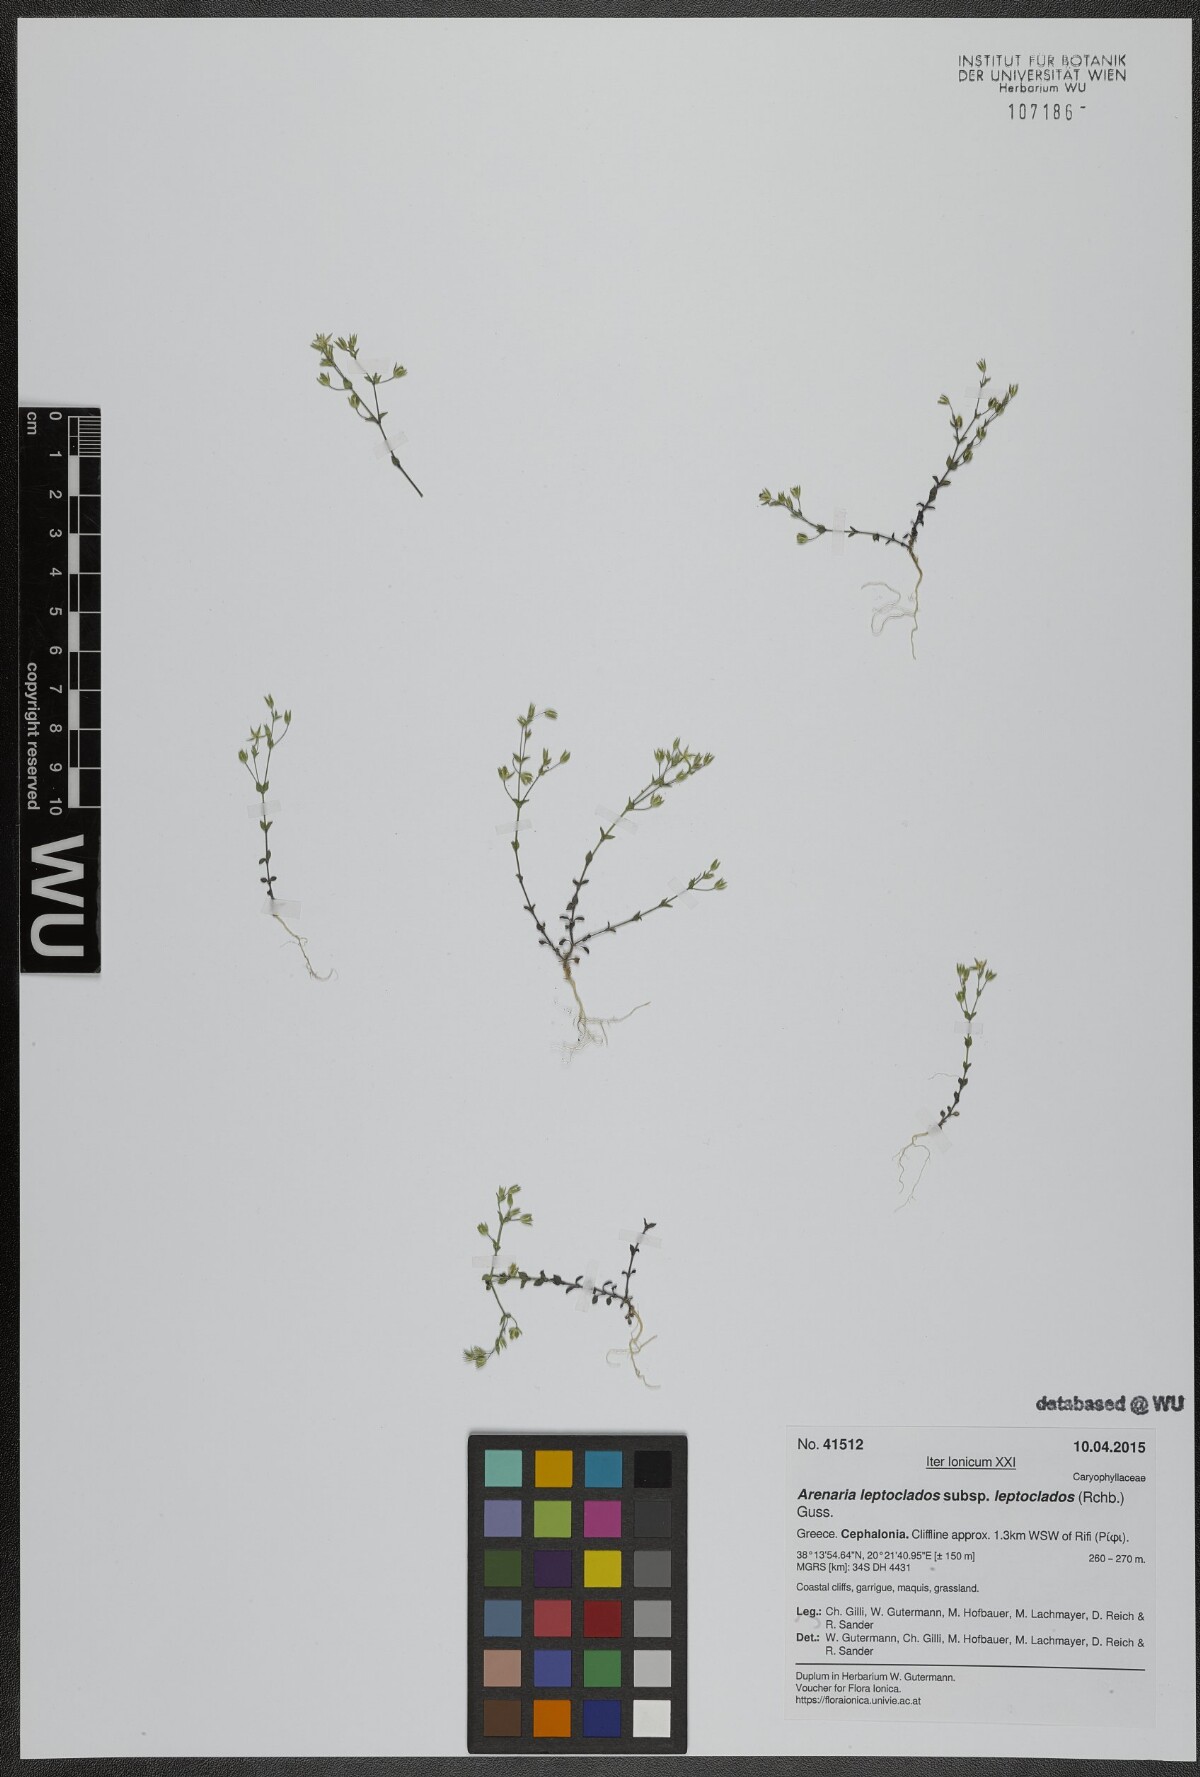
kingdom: Plantae
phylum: Tracheophyta
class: Magnoliopsida
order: Caryophyllales
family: Caryophyllaceae
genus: Arenaria
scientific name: Arenaria leptoclados
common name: Thyme-leaved sandwort
